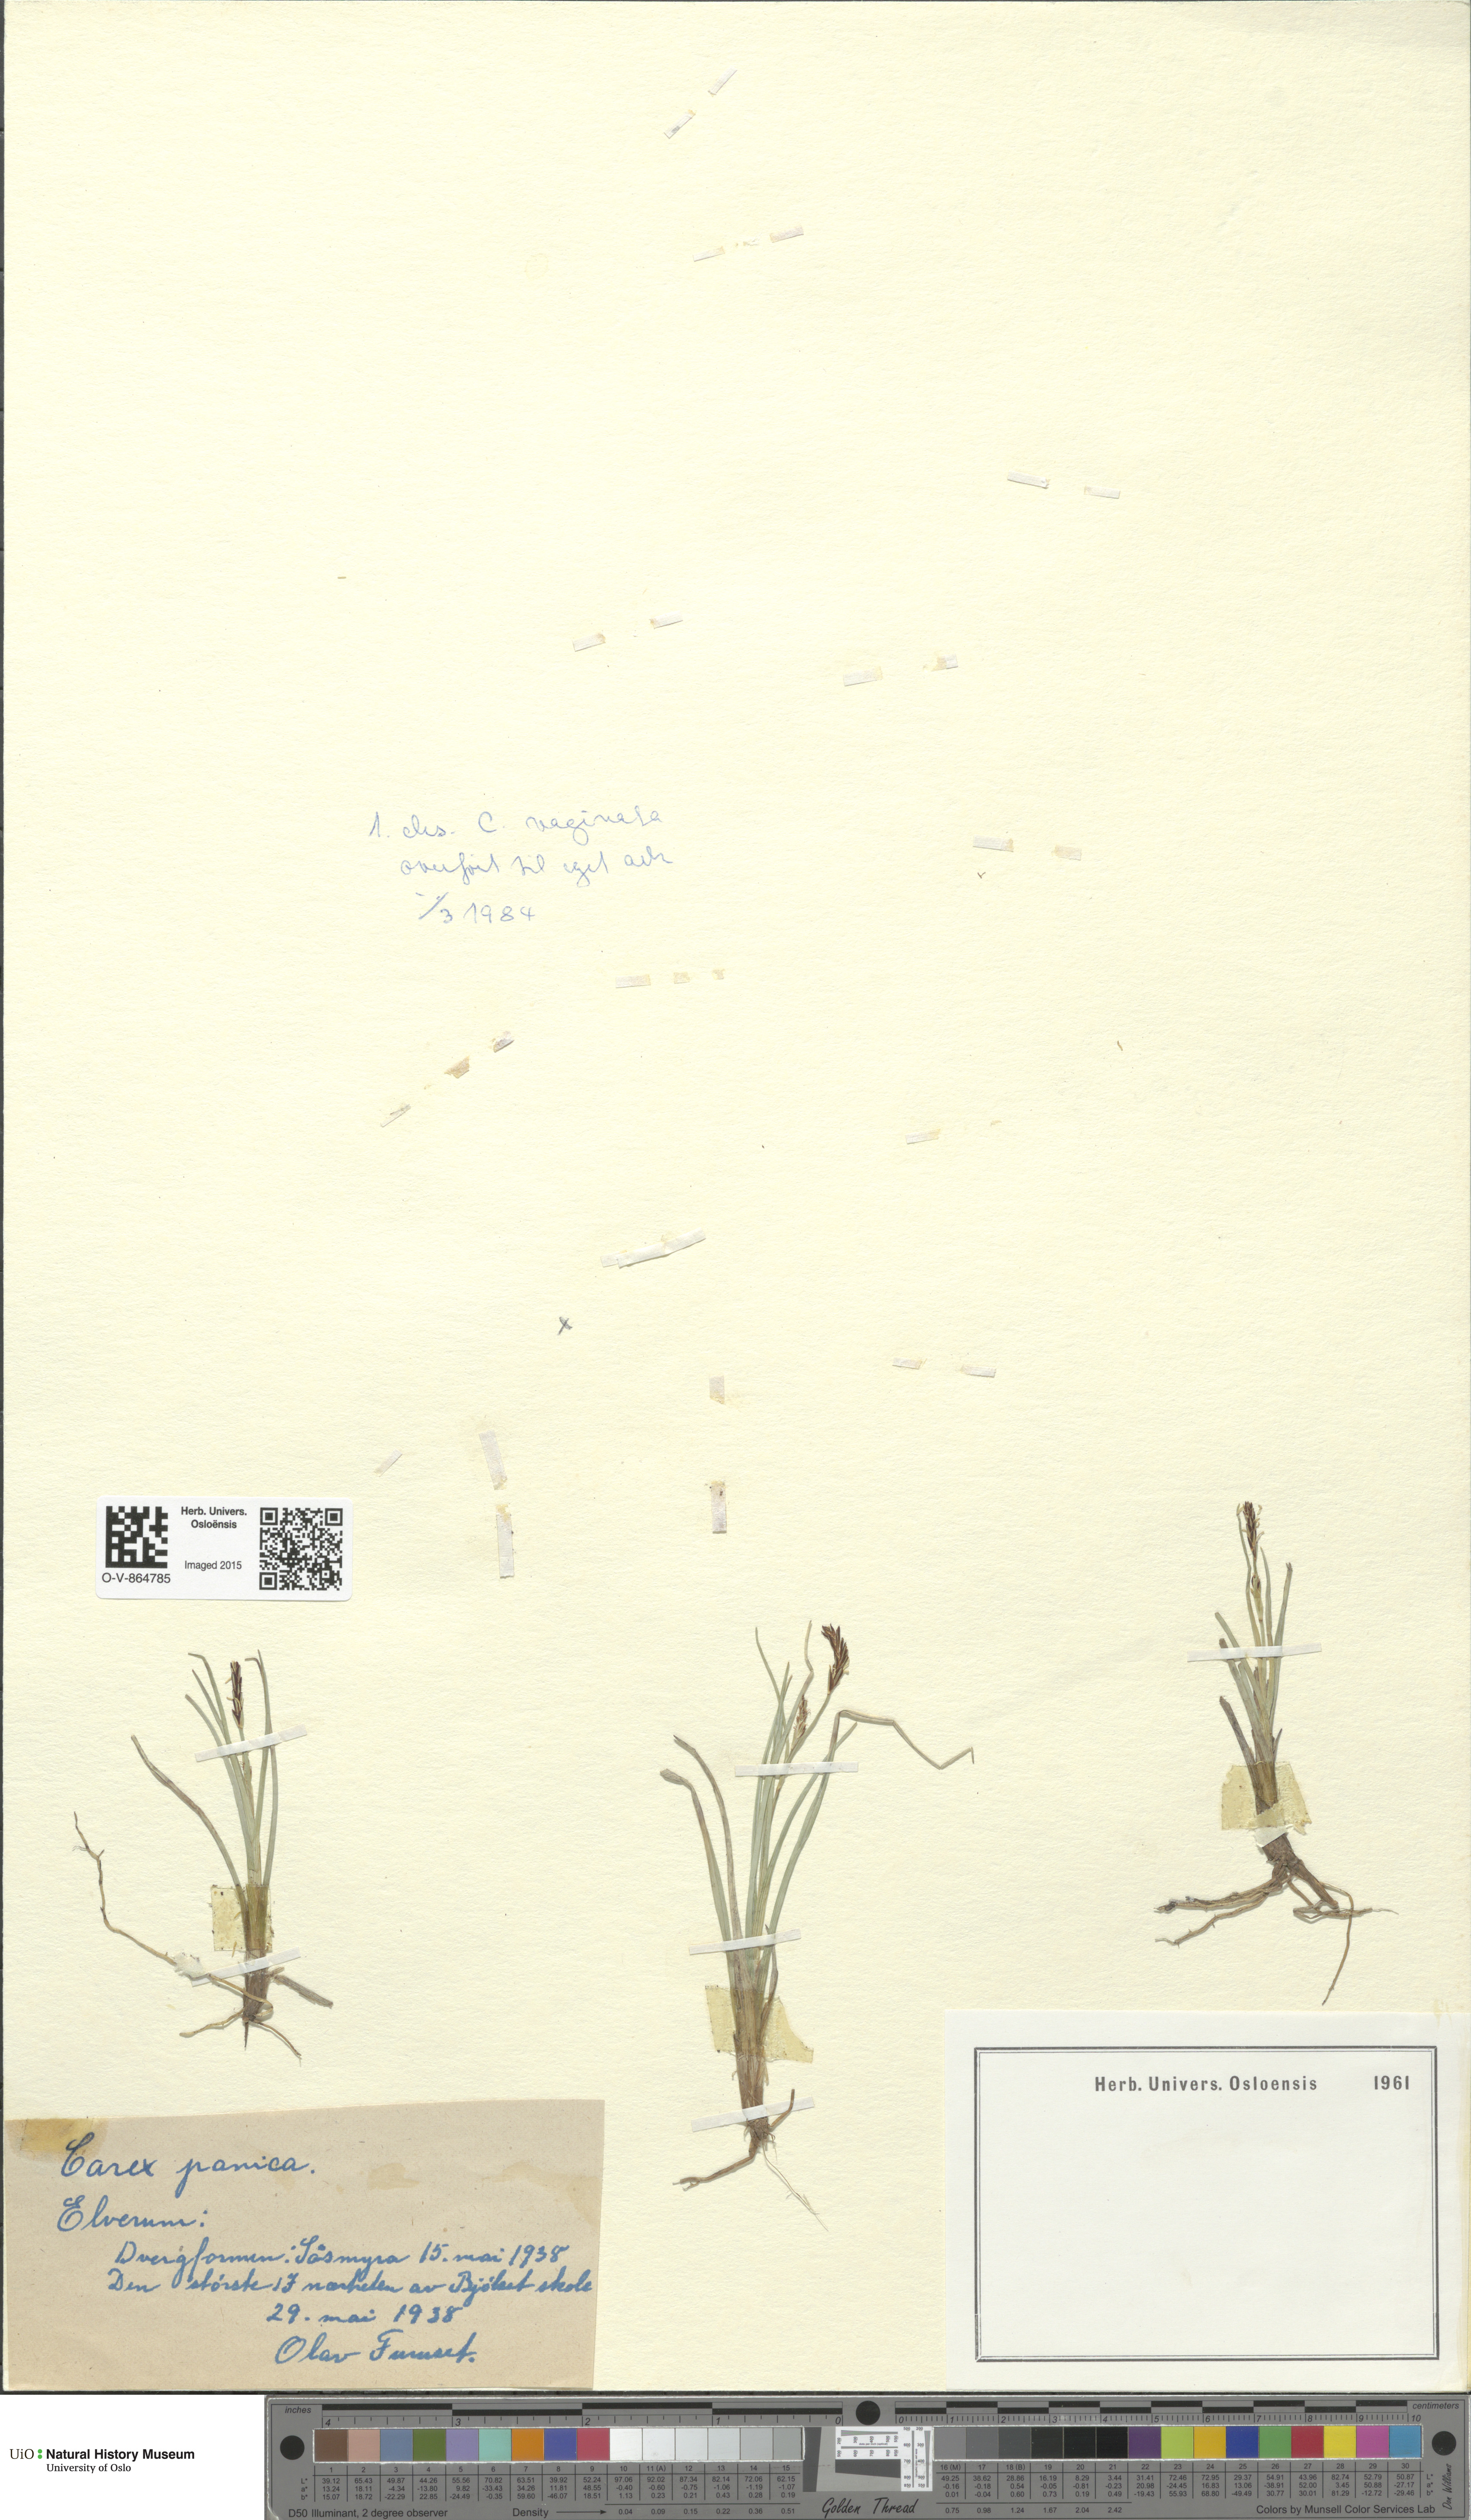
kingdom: Plantae
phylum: Tracheophyta
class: Liliopsida
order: Poales
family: Cyperaceae
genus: Carex
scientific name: Carex panicea
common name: Carnation sedge
